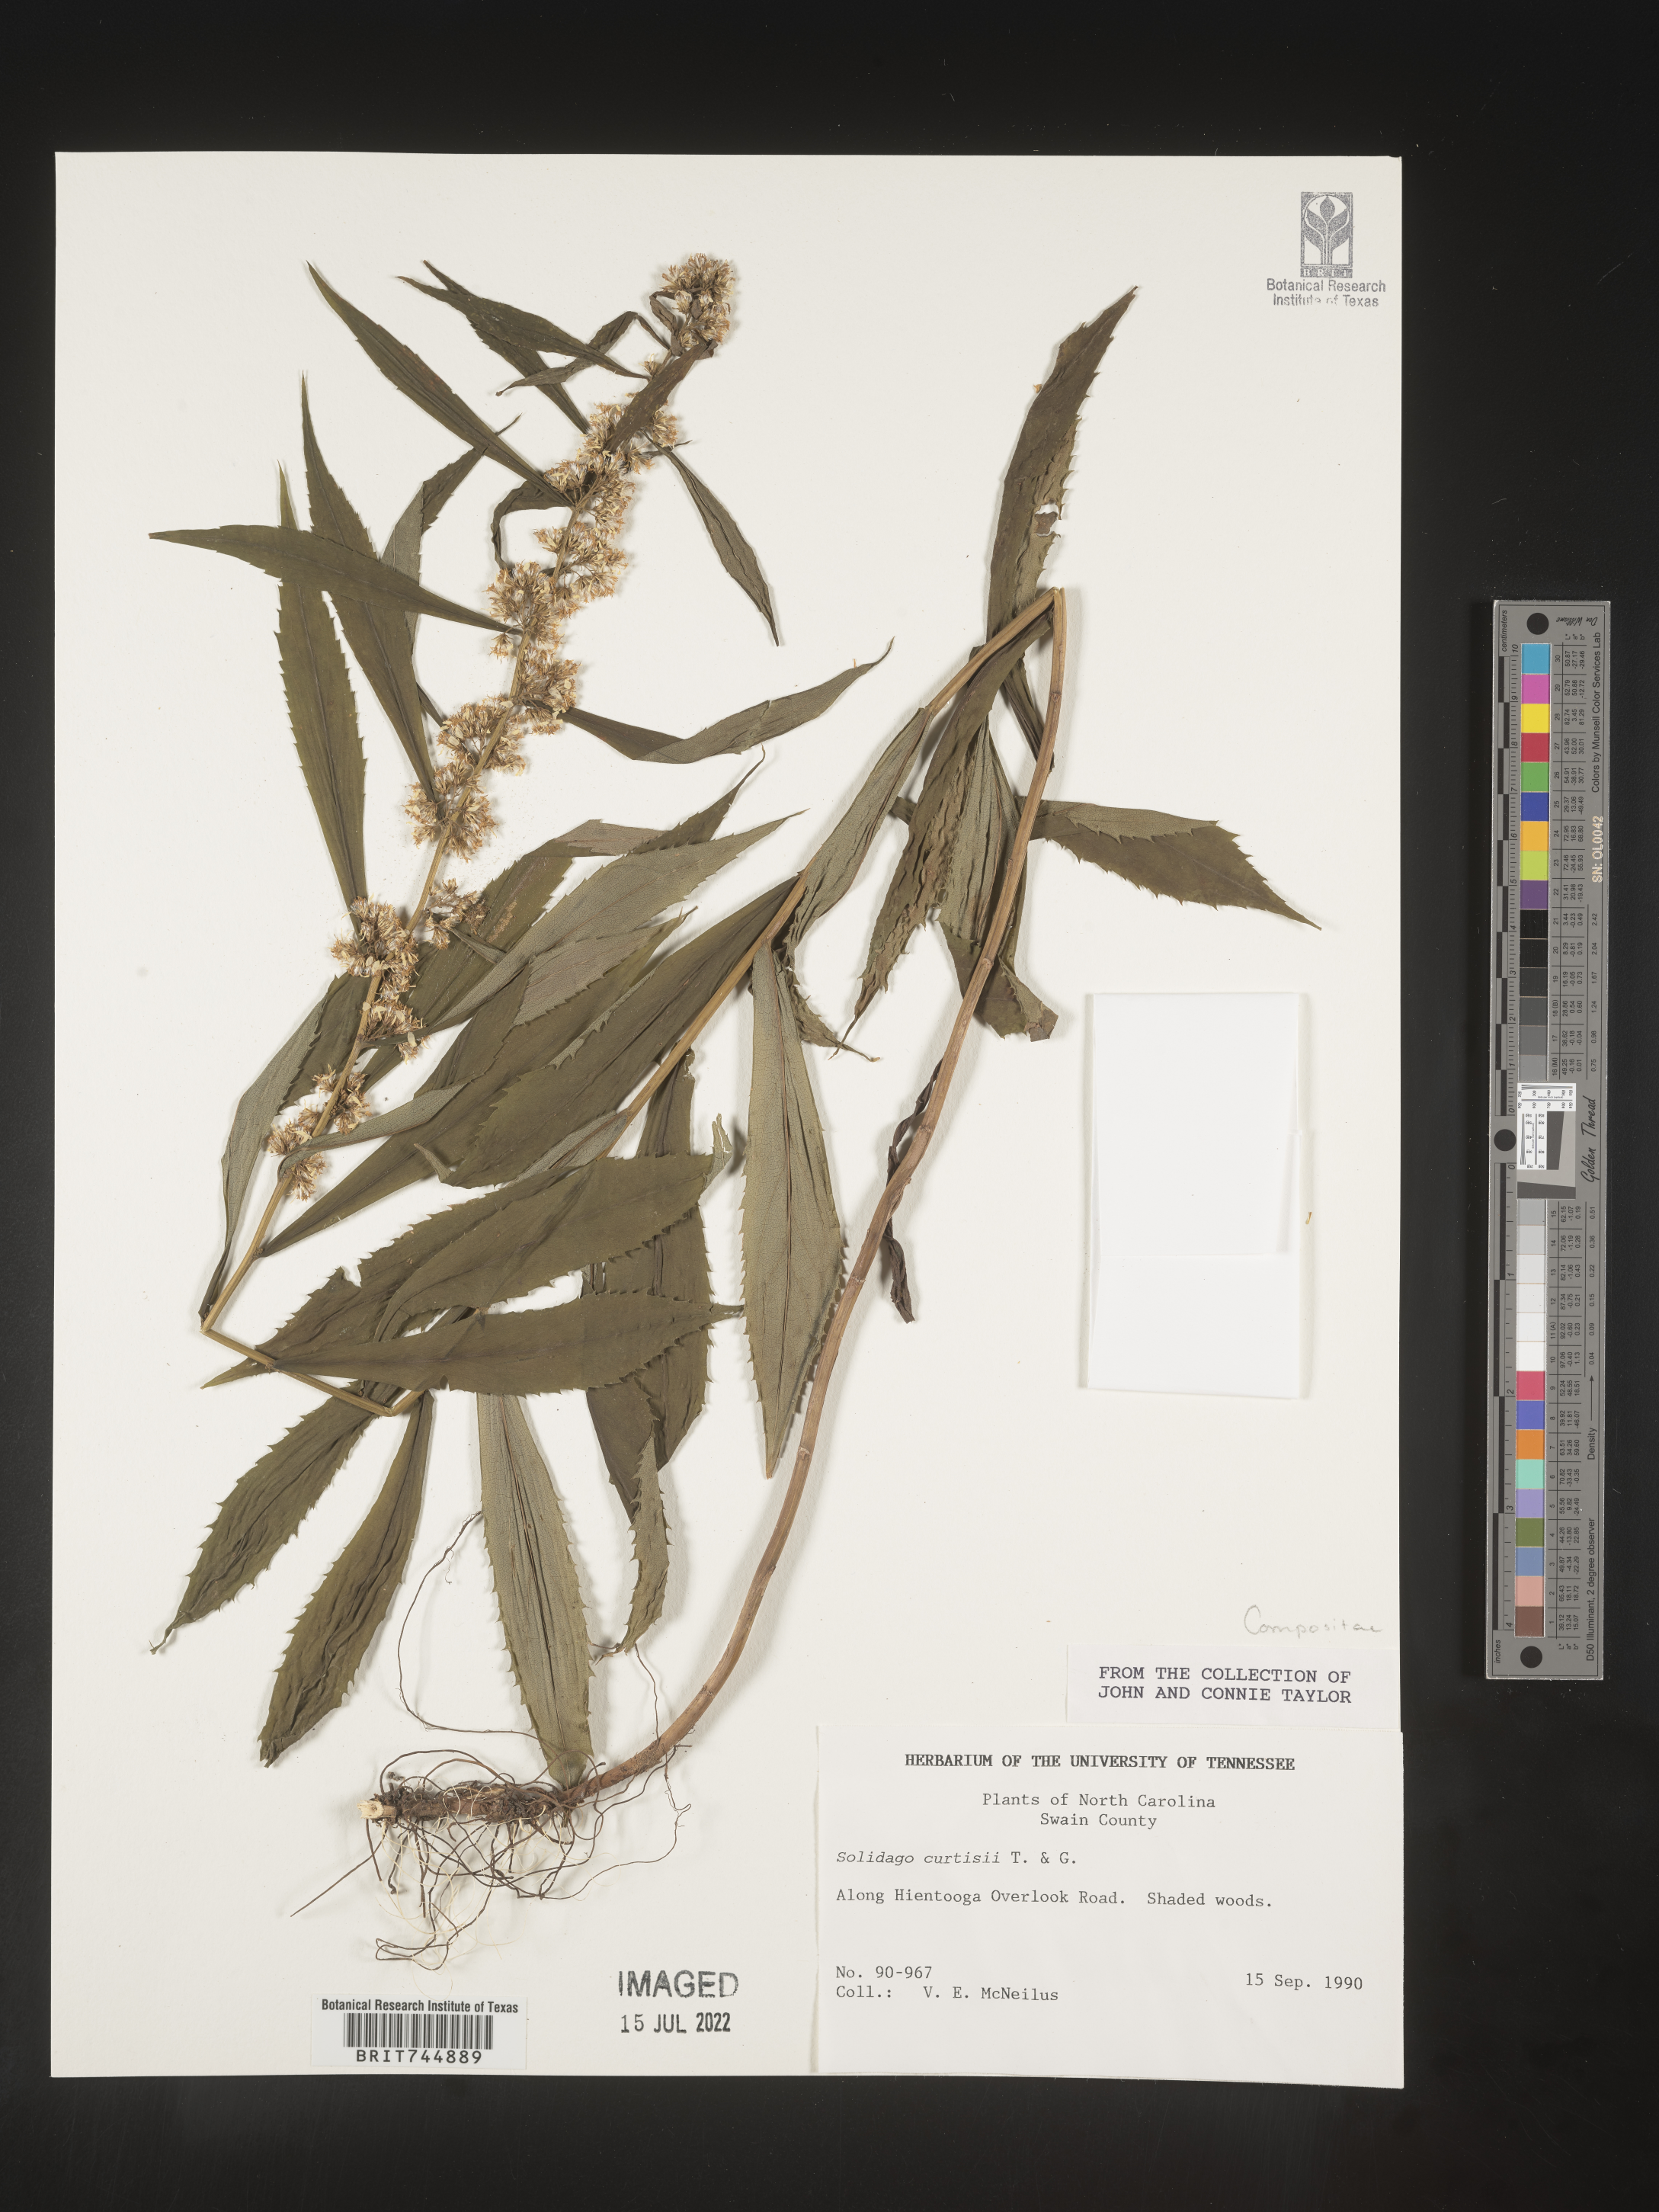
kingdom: Plantae
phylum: Tracheophyta
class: Magnoliopsida
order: Asterales
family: Asteraceae
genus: Solidago
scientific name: Solidago curtisii
